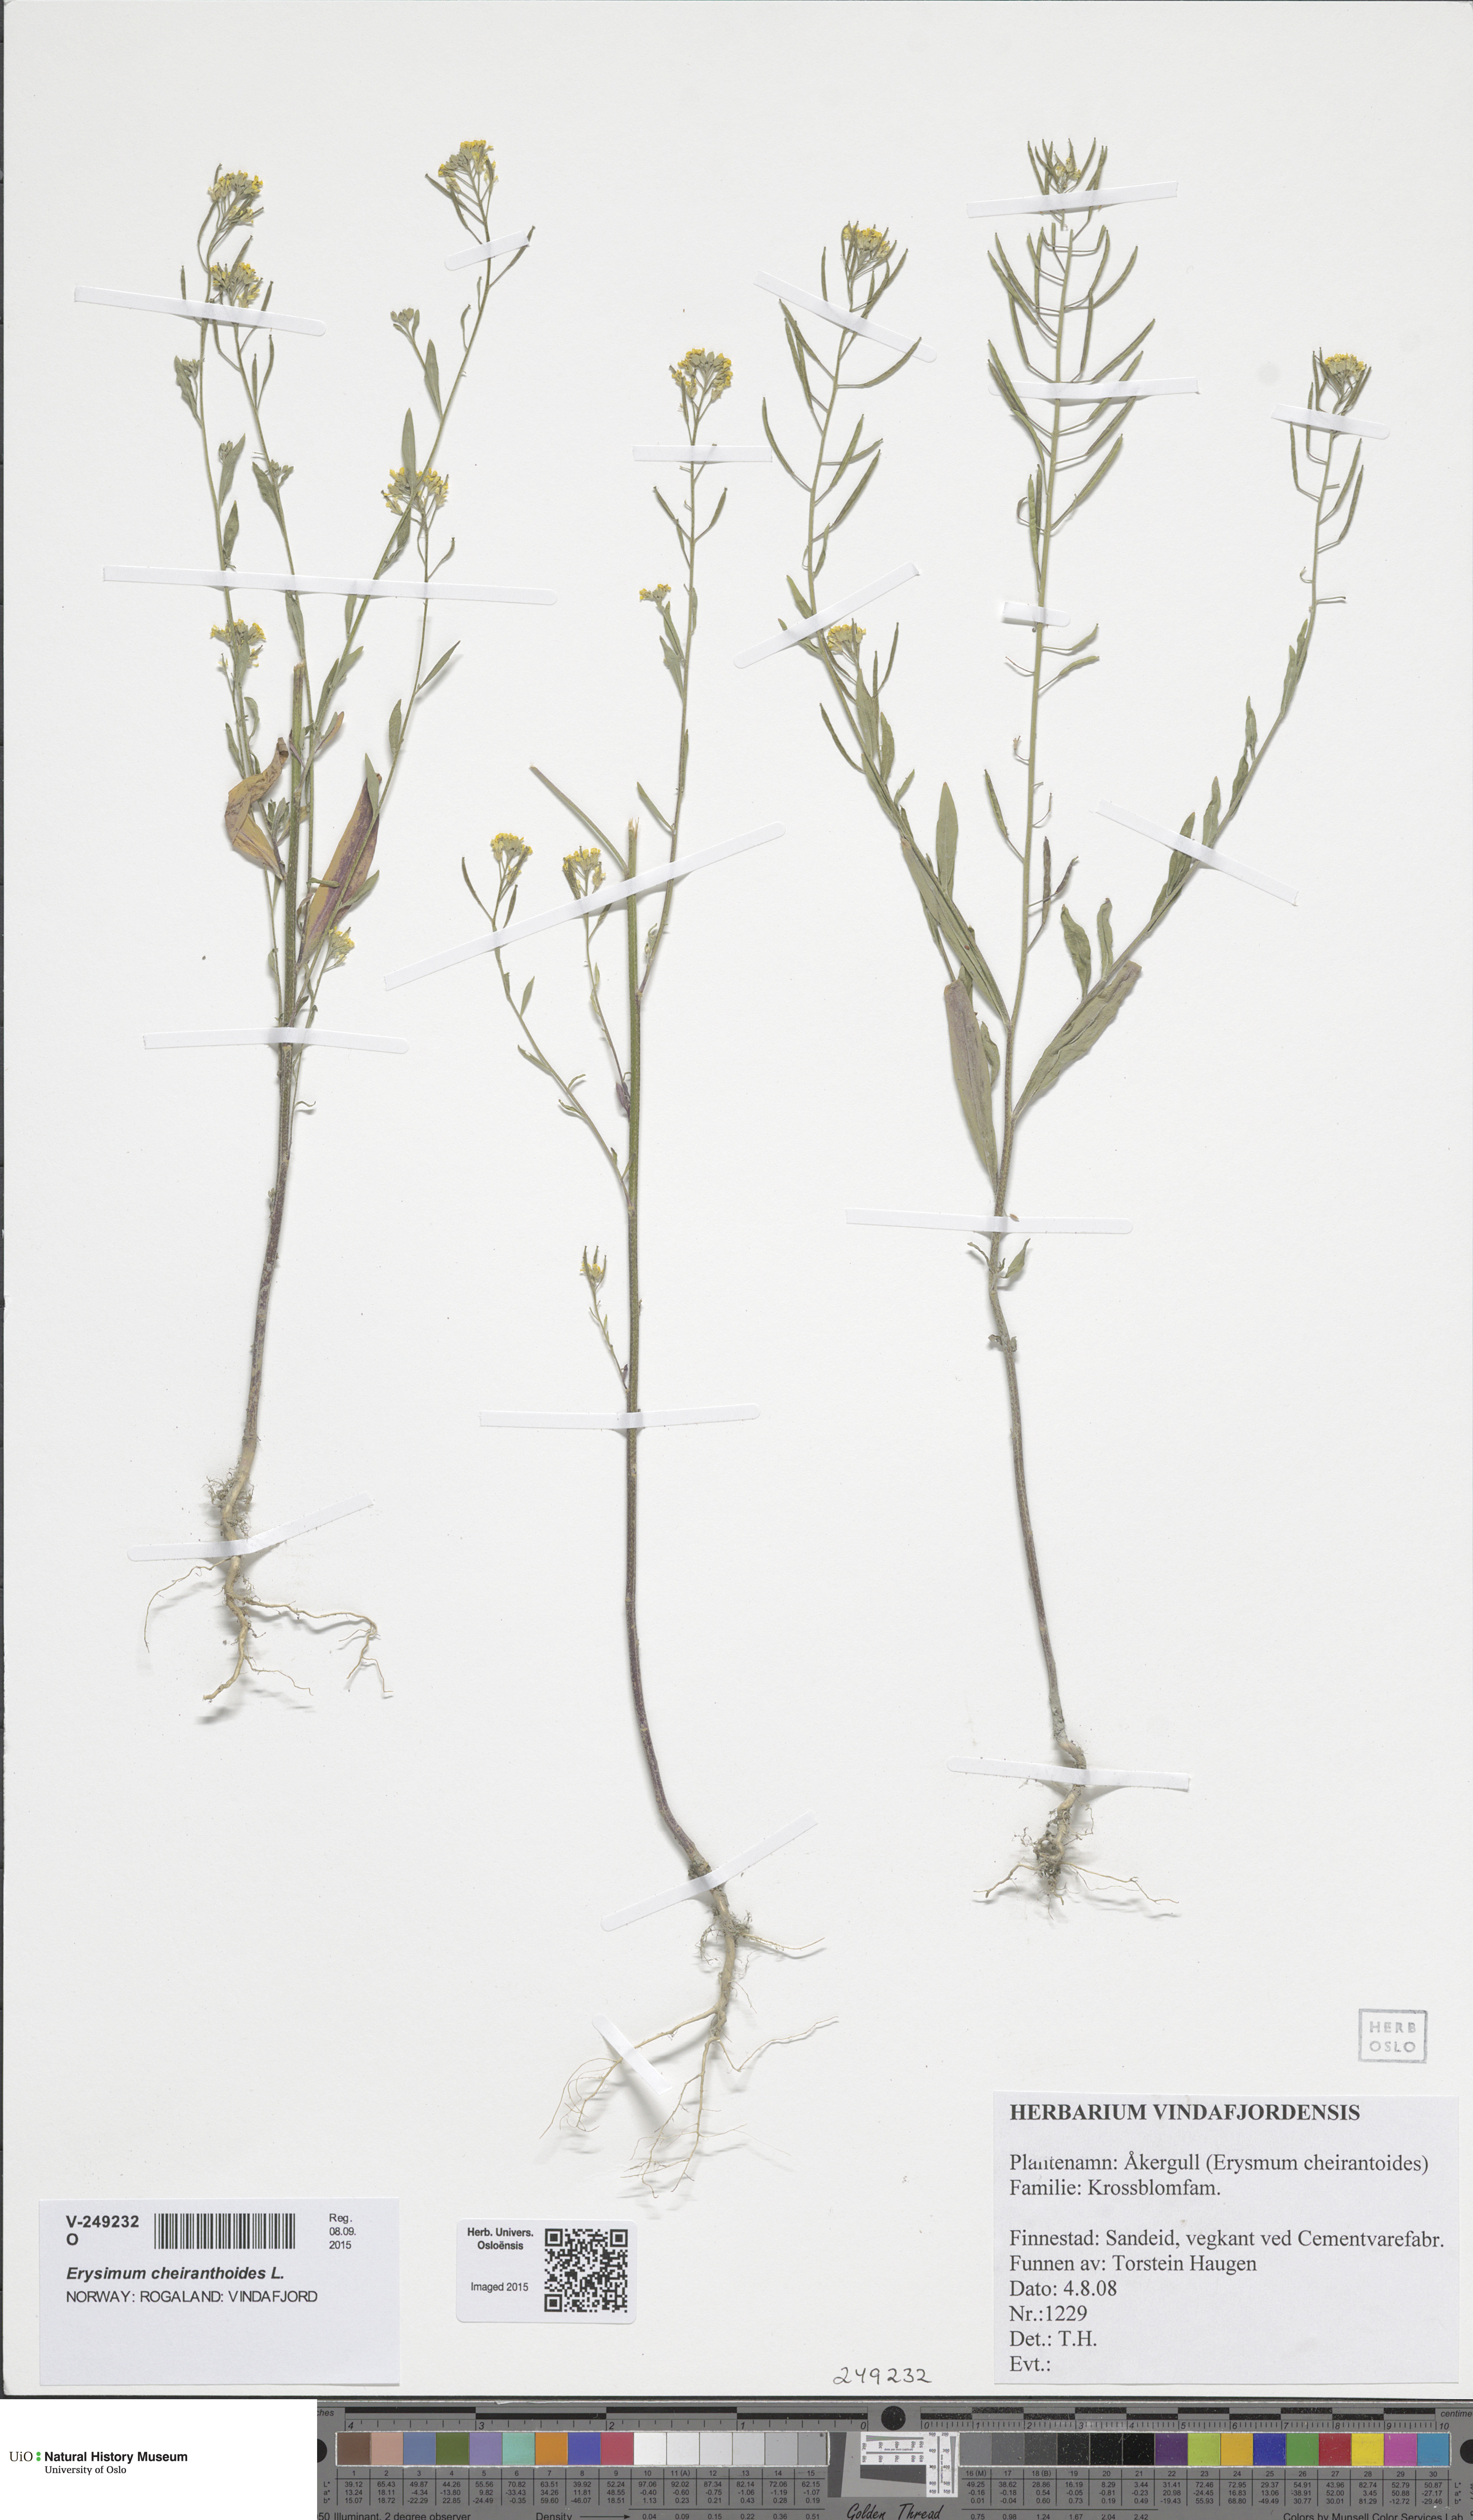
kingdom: Plantae
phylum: Tracheophyta
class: Magnoliopsida
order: Brassicales
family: Brassicaceae
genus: Erysimum
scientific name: Erysimum cheiranthoides
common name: Treacle mustard
